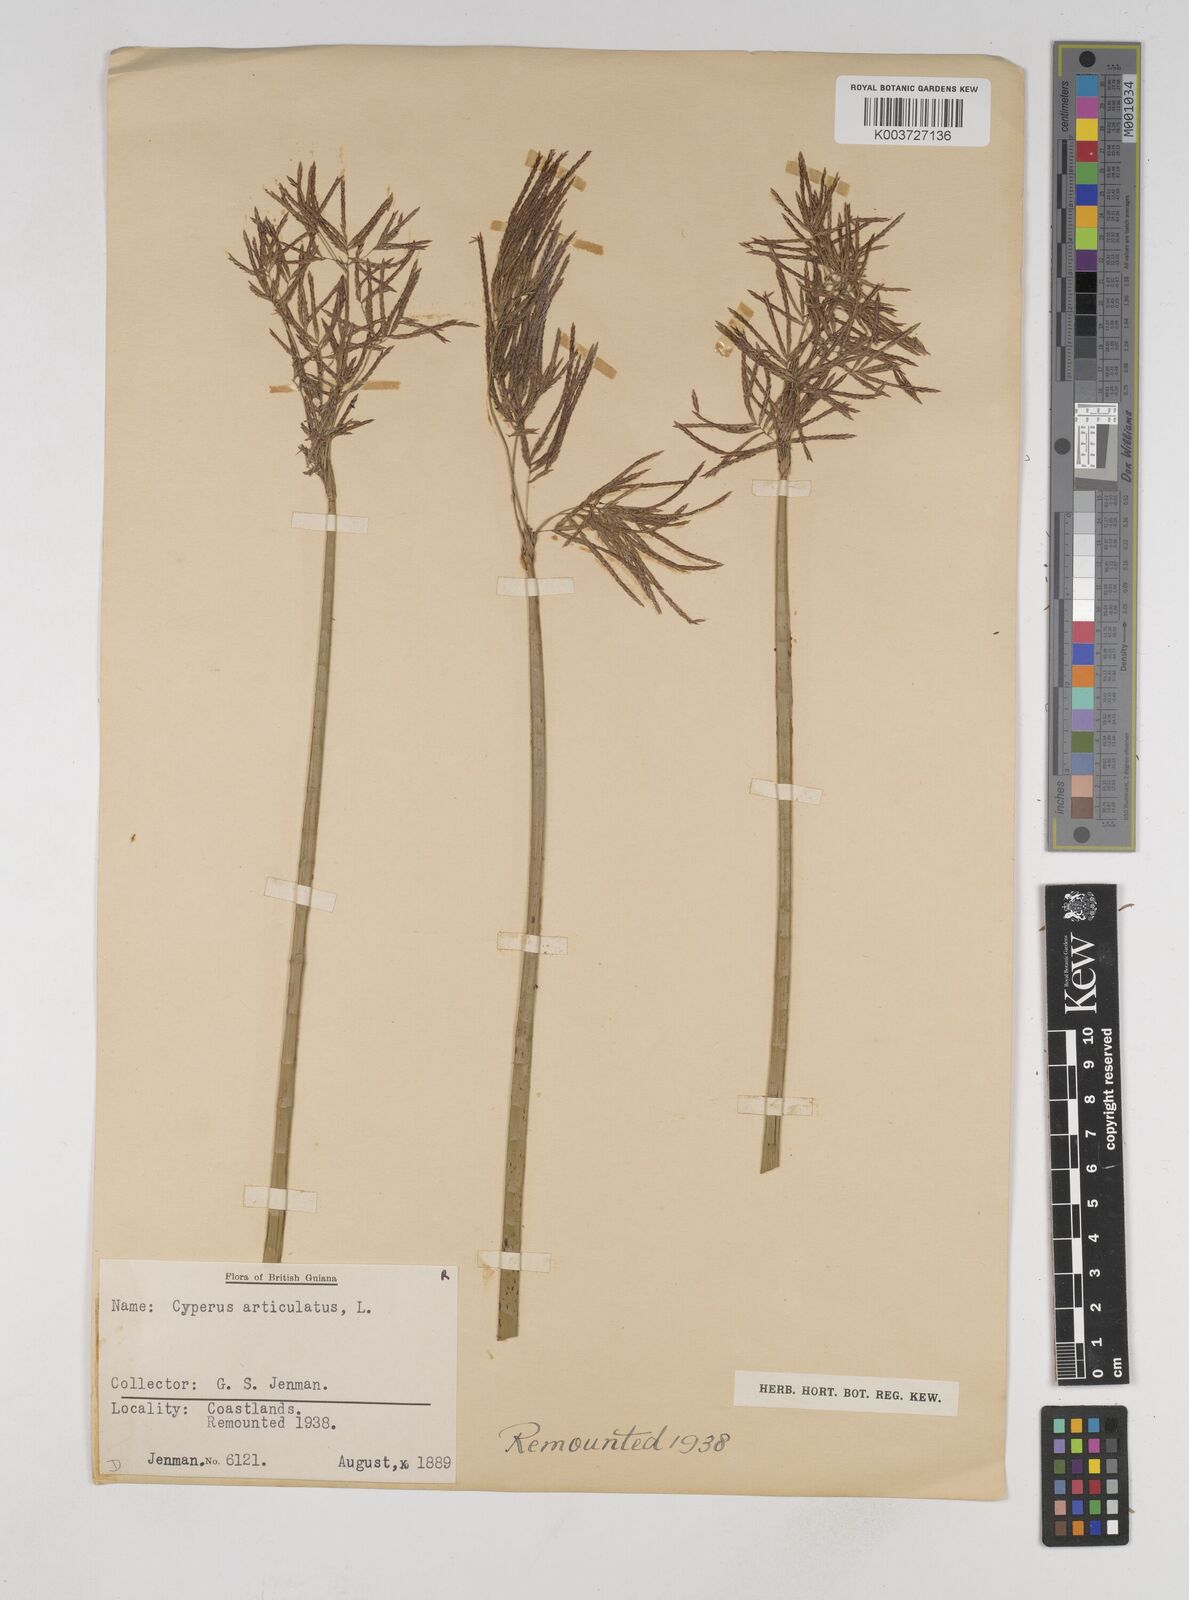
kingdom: Plantae
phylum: Tracheophyta
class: Liliopsida
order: Poales
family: Cyperaceae
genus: Cyperus
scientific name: Cyperus articulatus
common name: Jointed flatsedge
